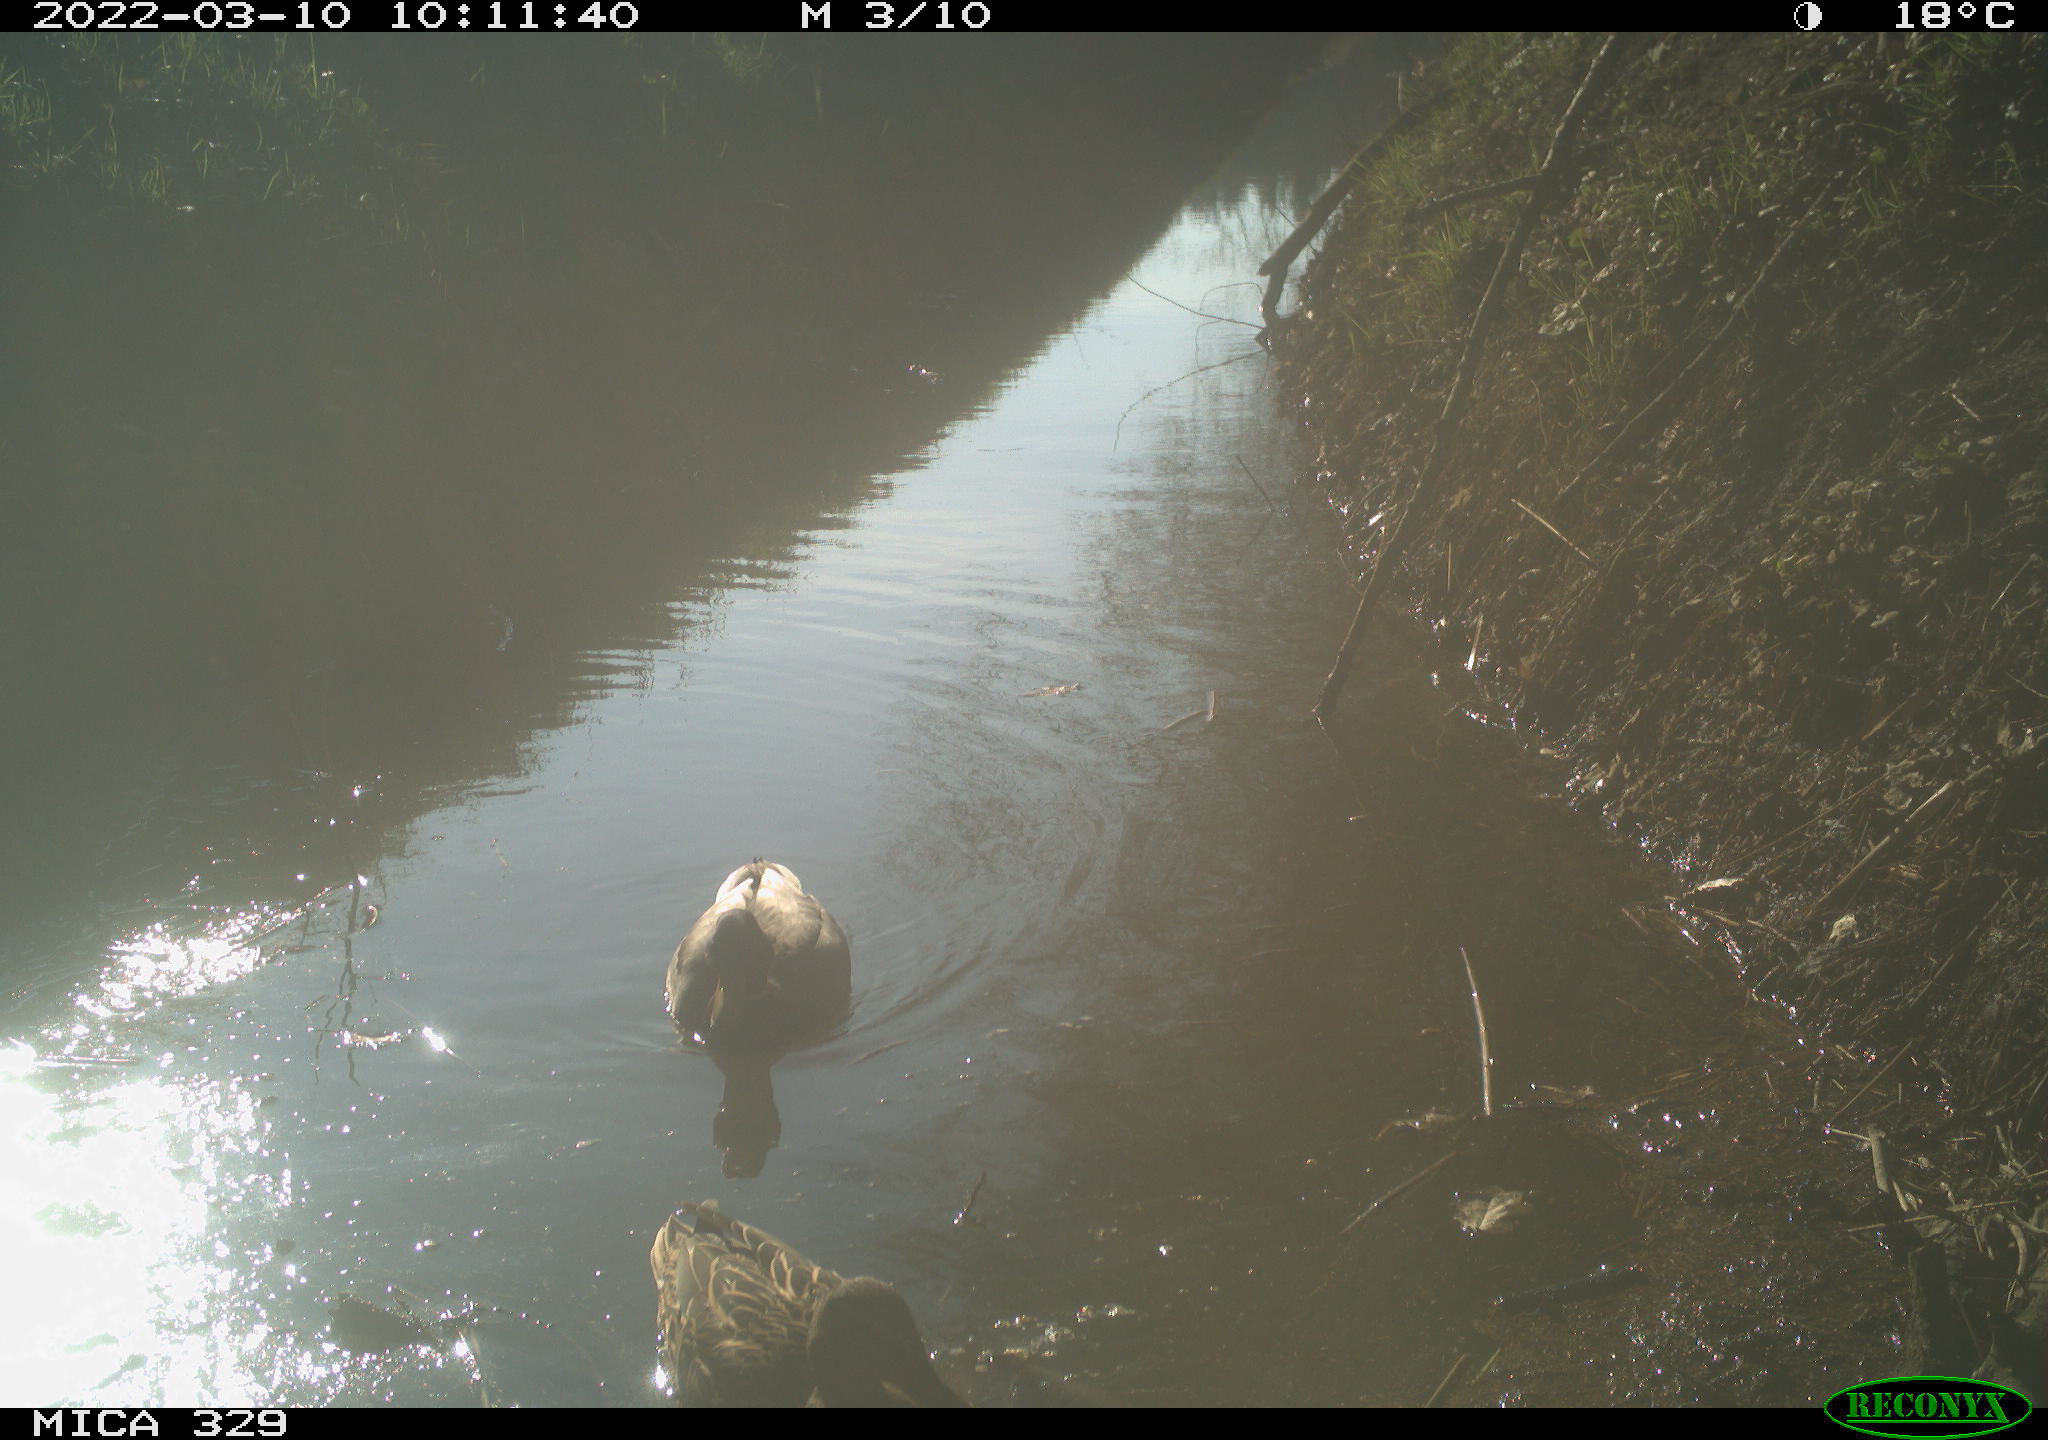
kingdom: Animalia
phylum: Chordata
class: Aves
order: Anseriformes
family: Anatidae
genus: Anas
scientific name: Anas platyrhynchos
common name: Mallard
